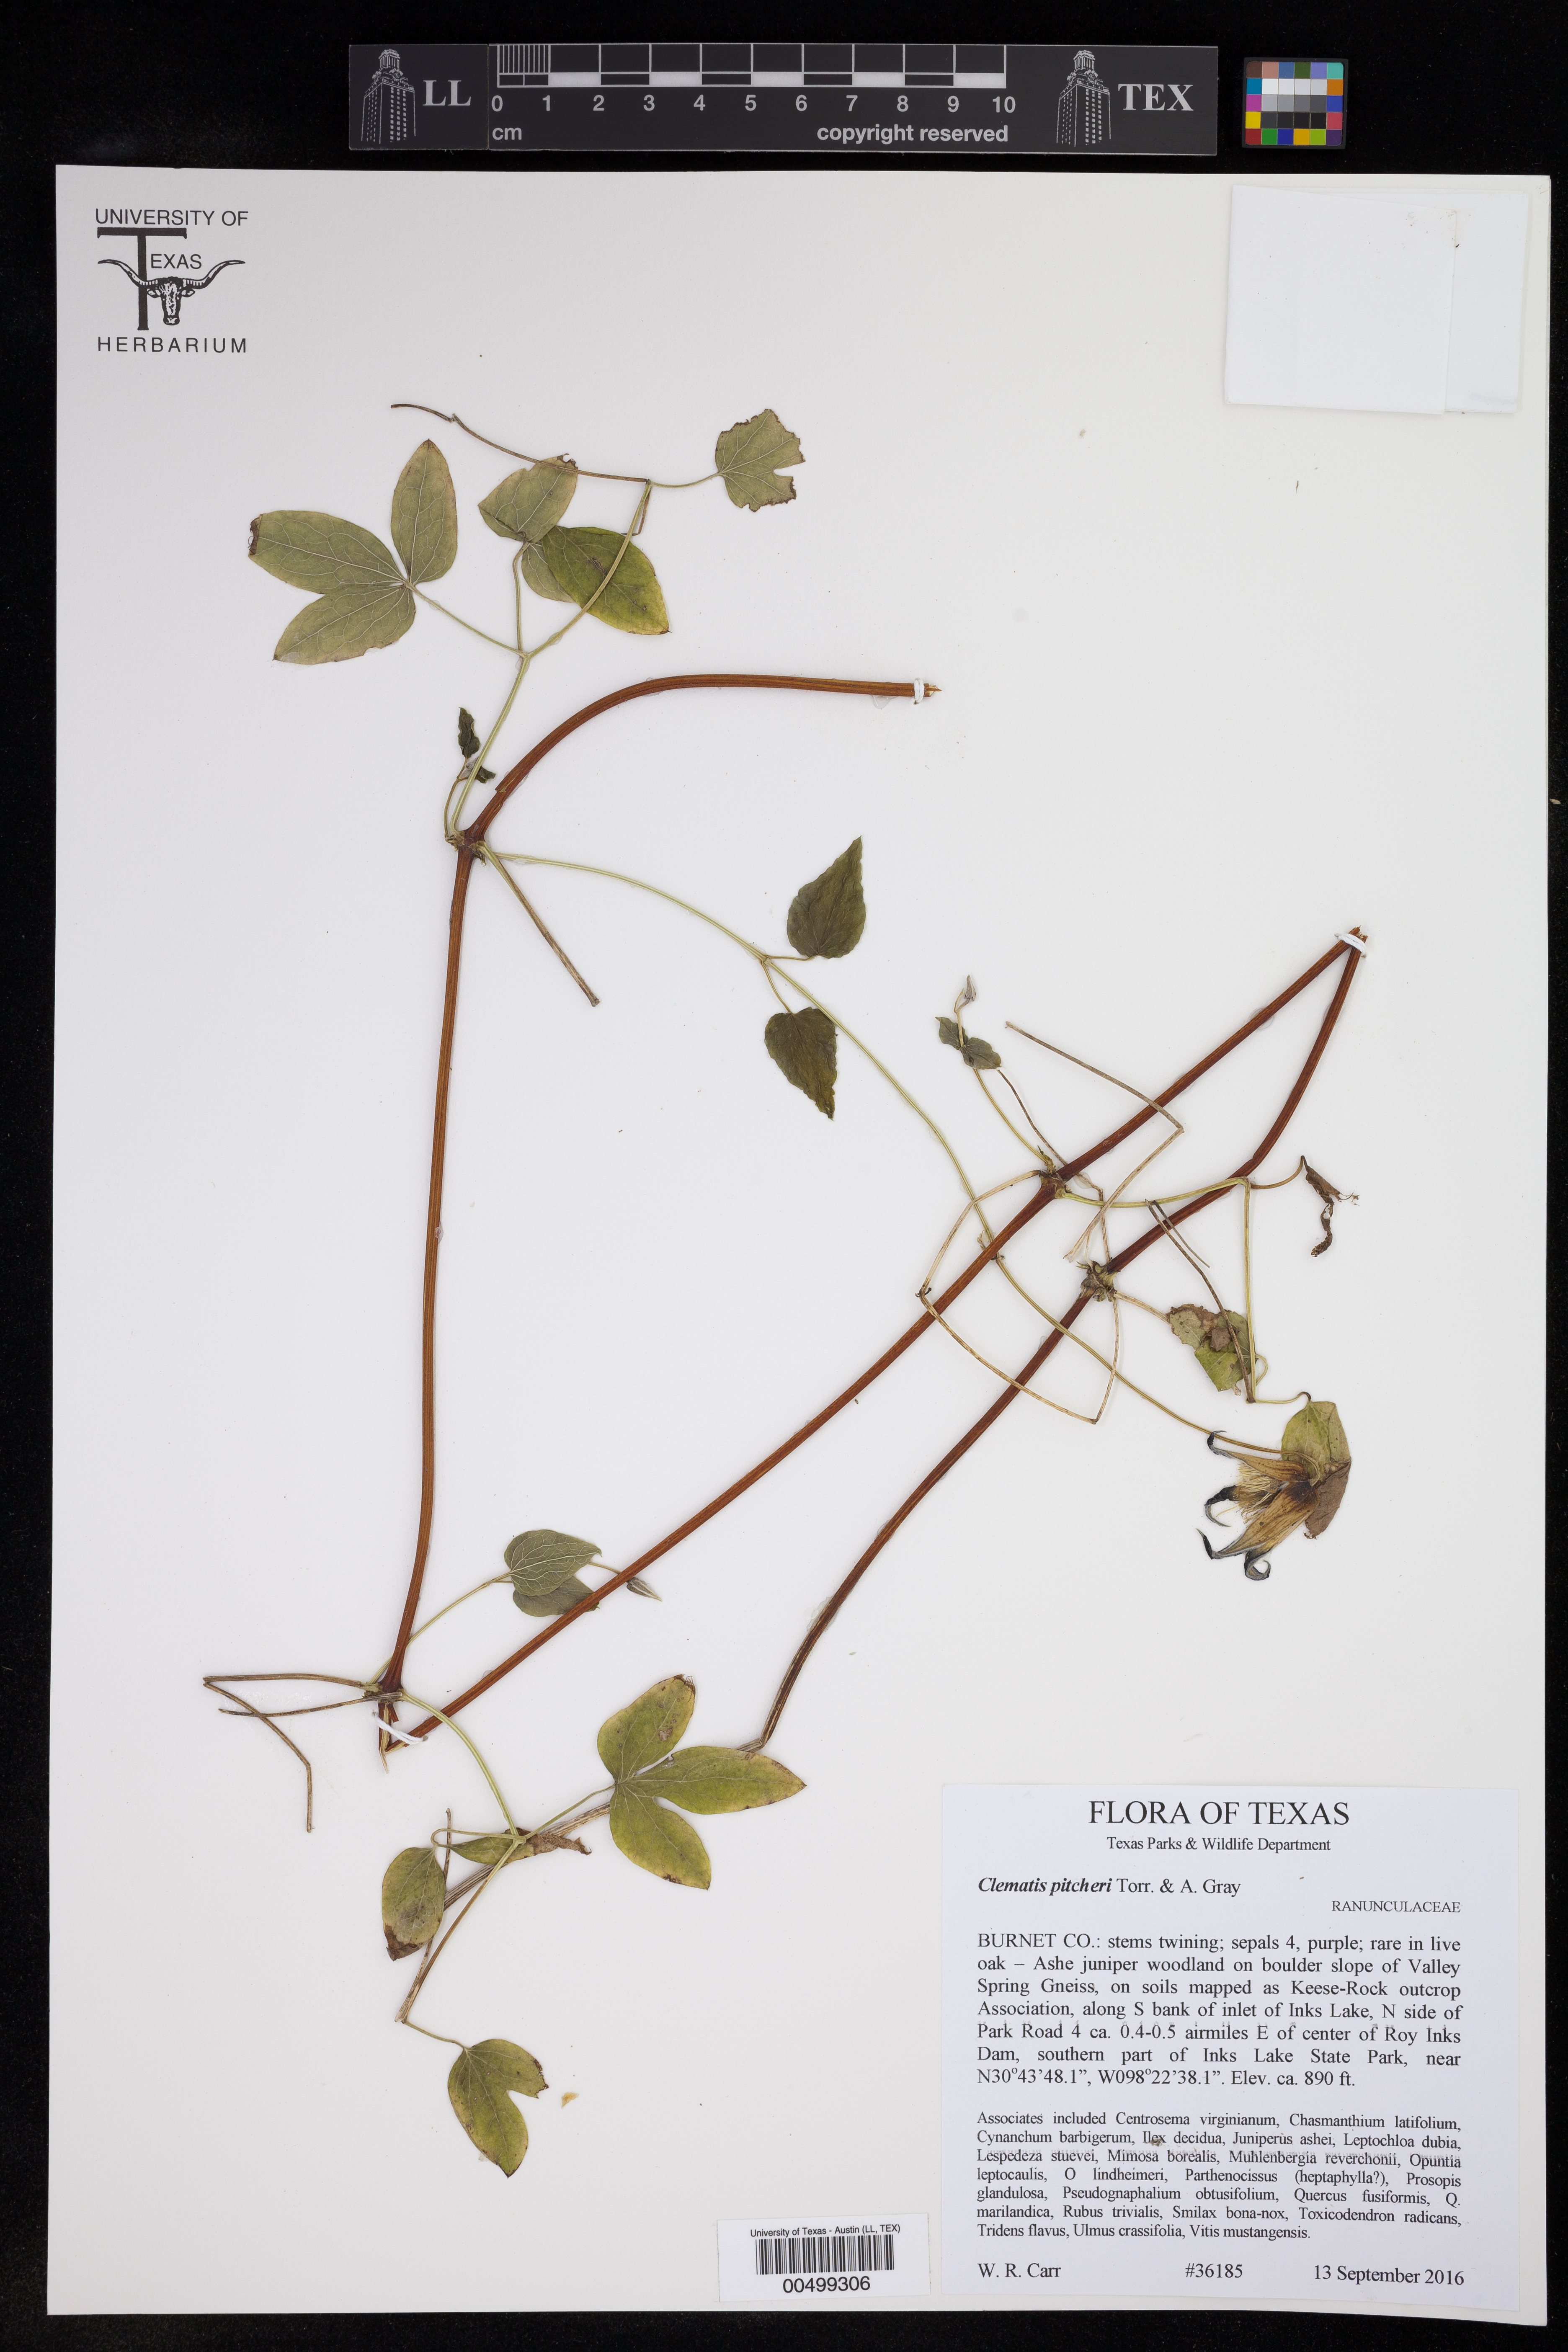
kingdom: Plantae
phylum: Tracheophyta
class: Magnoliopsida
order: Ranunculales
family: Ranunculaceae
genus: Clematis
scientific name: Clematis pitcheri
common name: Bellflower clematis
